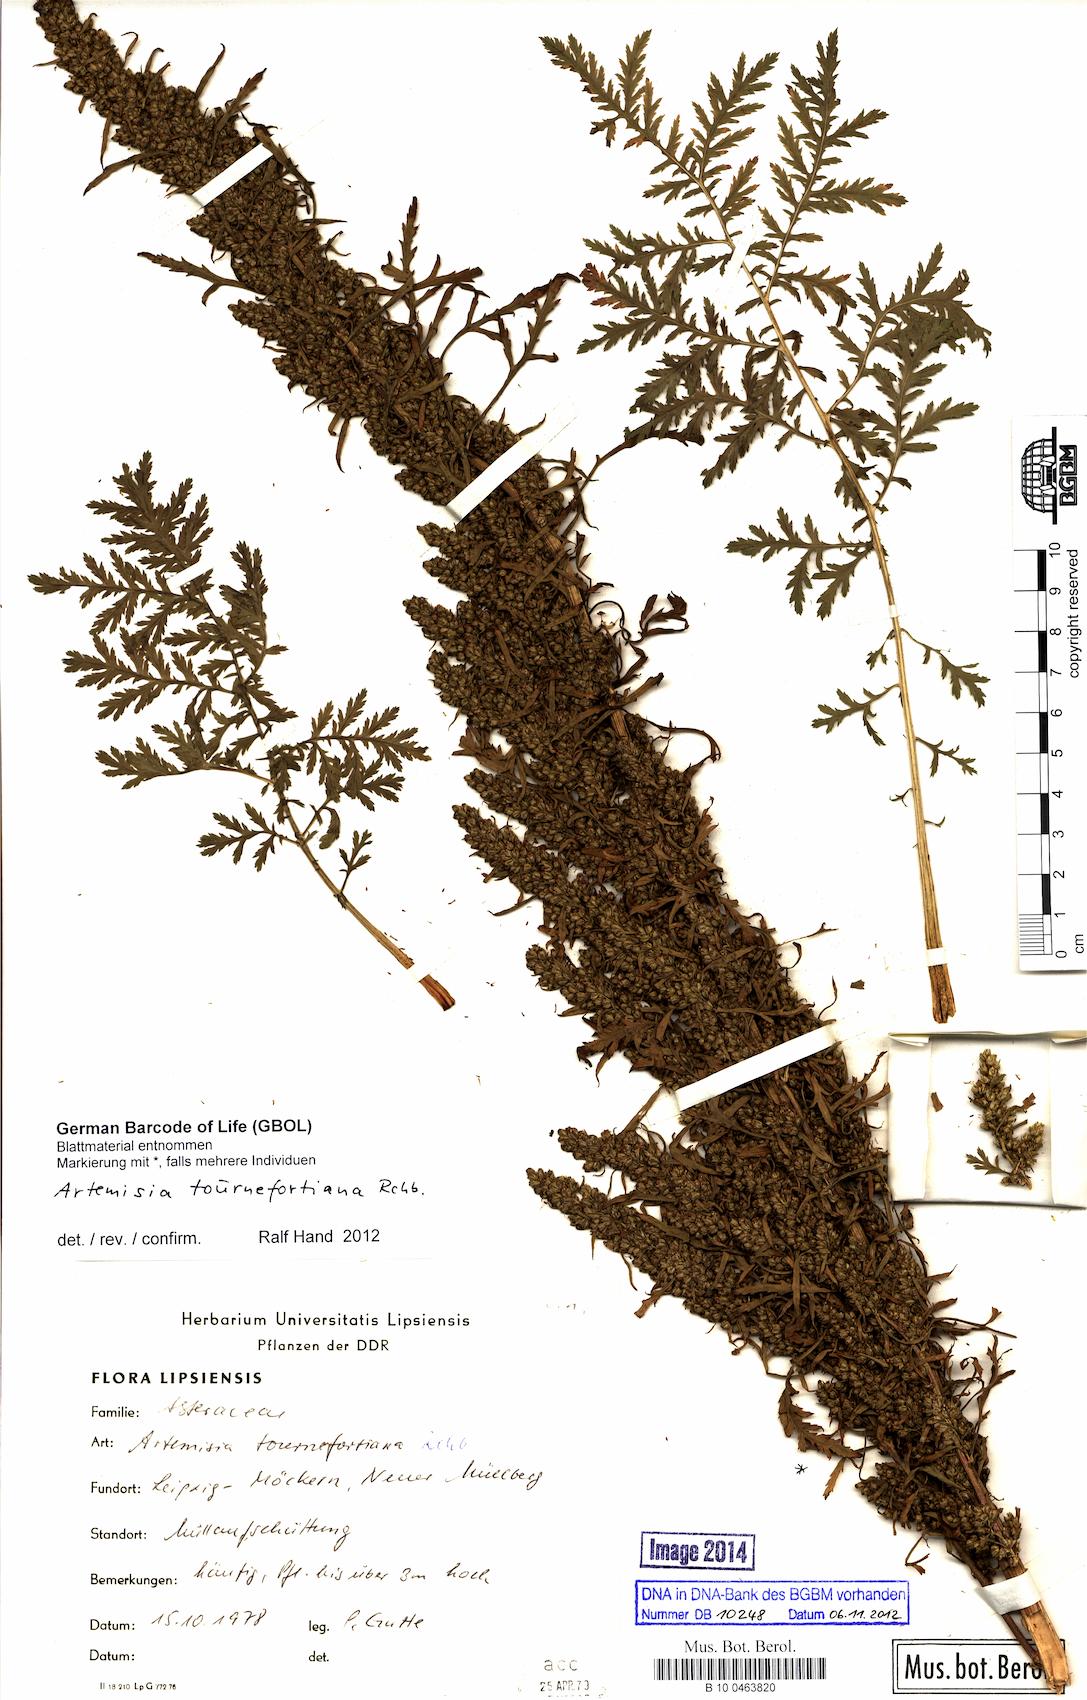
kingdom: Plantae
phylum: Tracheophyta
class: Magnoliopsida
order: Asterales
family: Asteraceae
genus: Artemisia
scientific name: Artemisia tournefortiana
